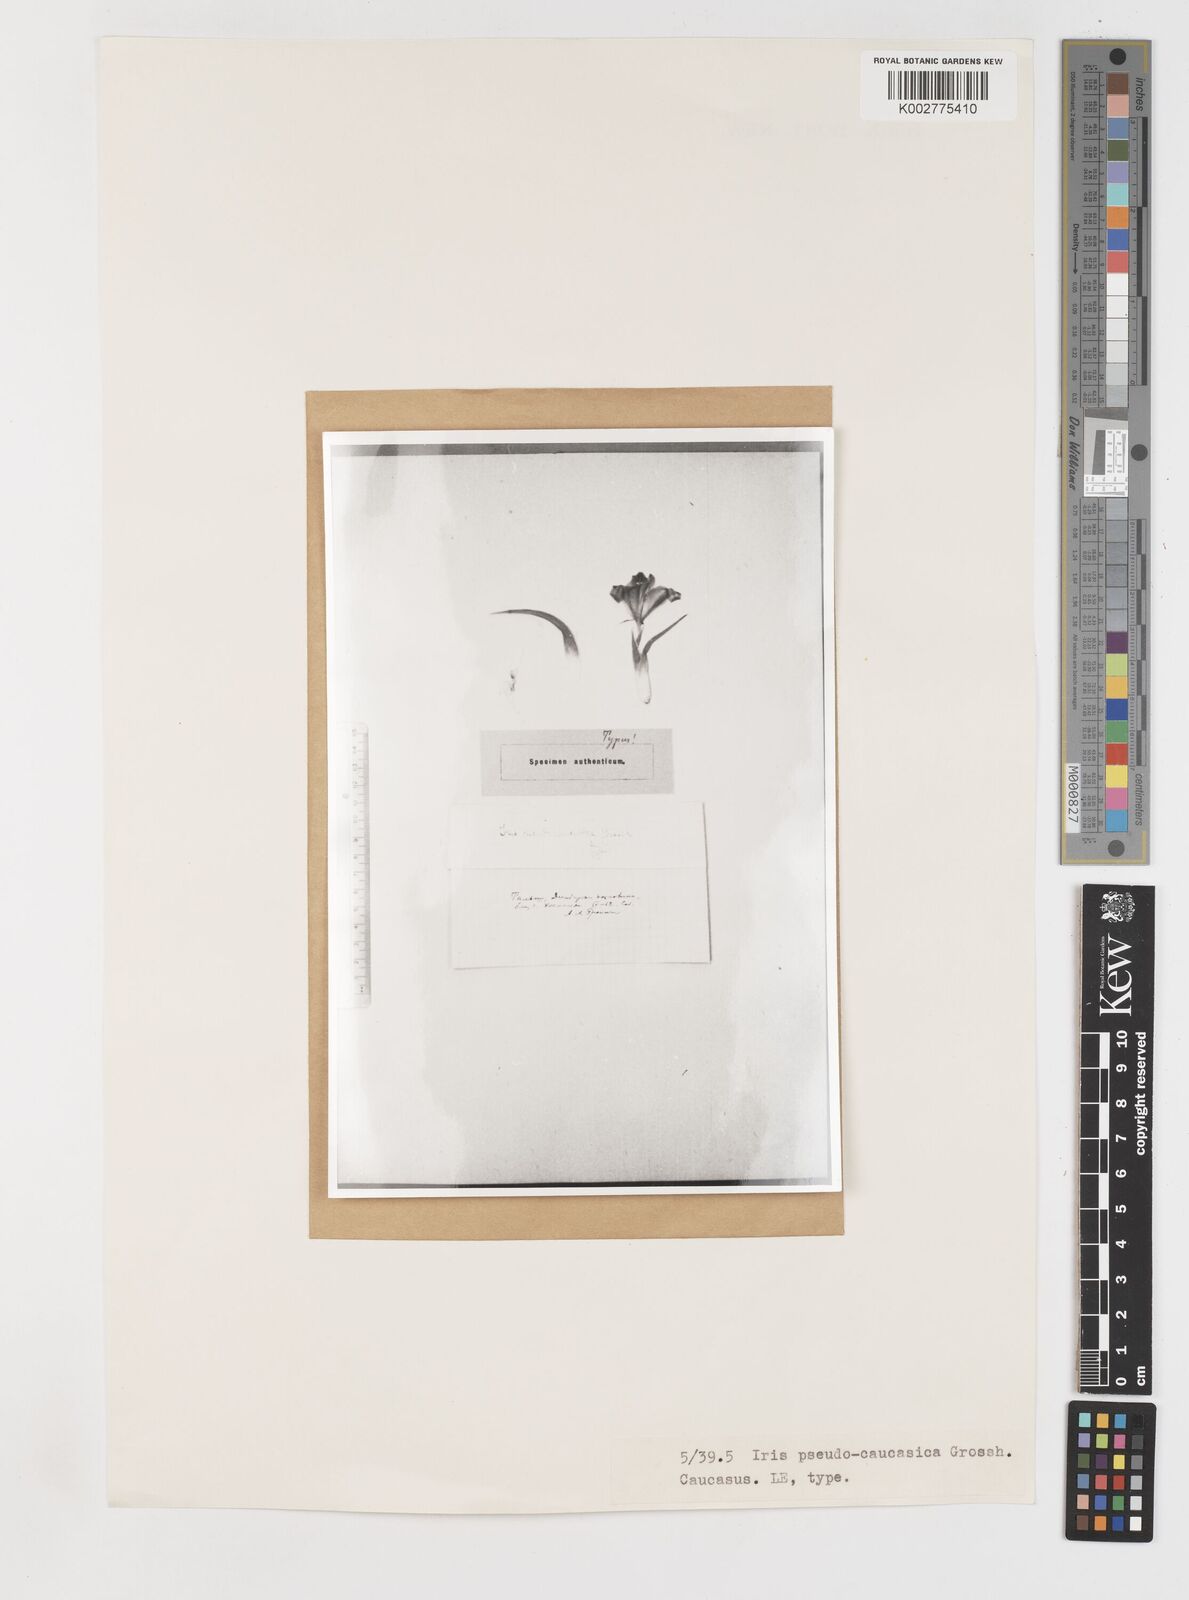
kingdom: Plantae
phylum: Tracheophyta
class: Liliopsida
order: Asparagales
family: Iridaceae
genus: Iris
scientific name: Iris pseudocaucasica
